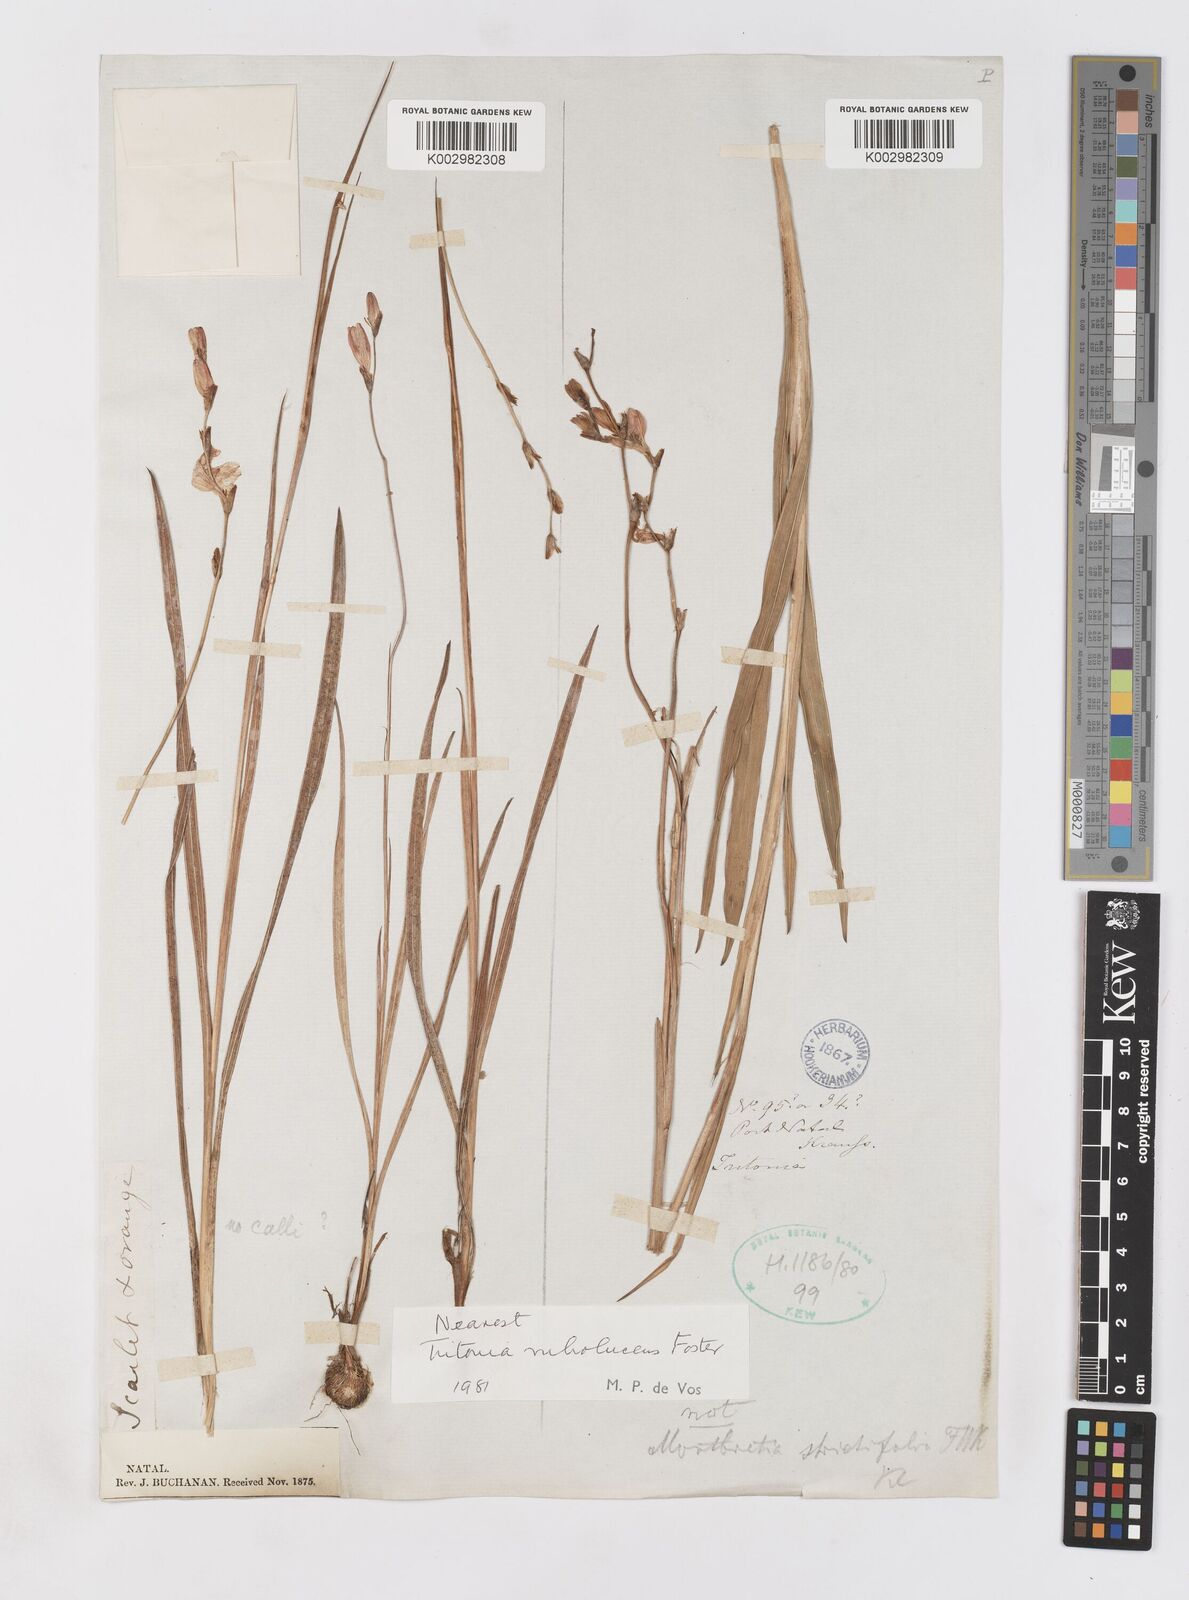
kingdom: Plantae
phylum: Tracheophyta
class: Liliopsida
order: Asparagales
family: Iridaceae
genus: Tritonia
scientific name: Tritonia disticha
